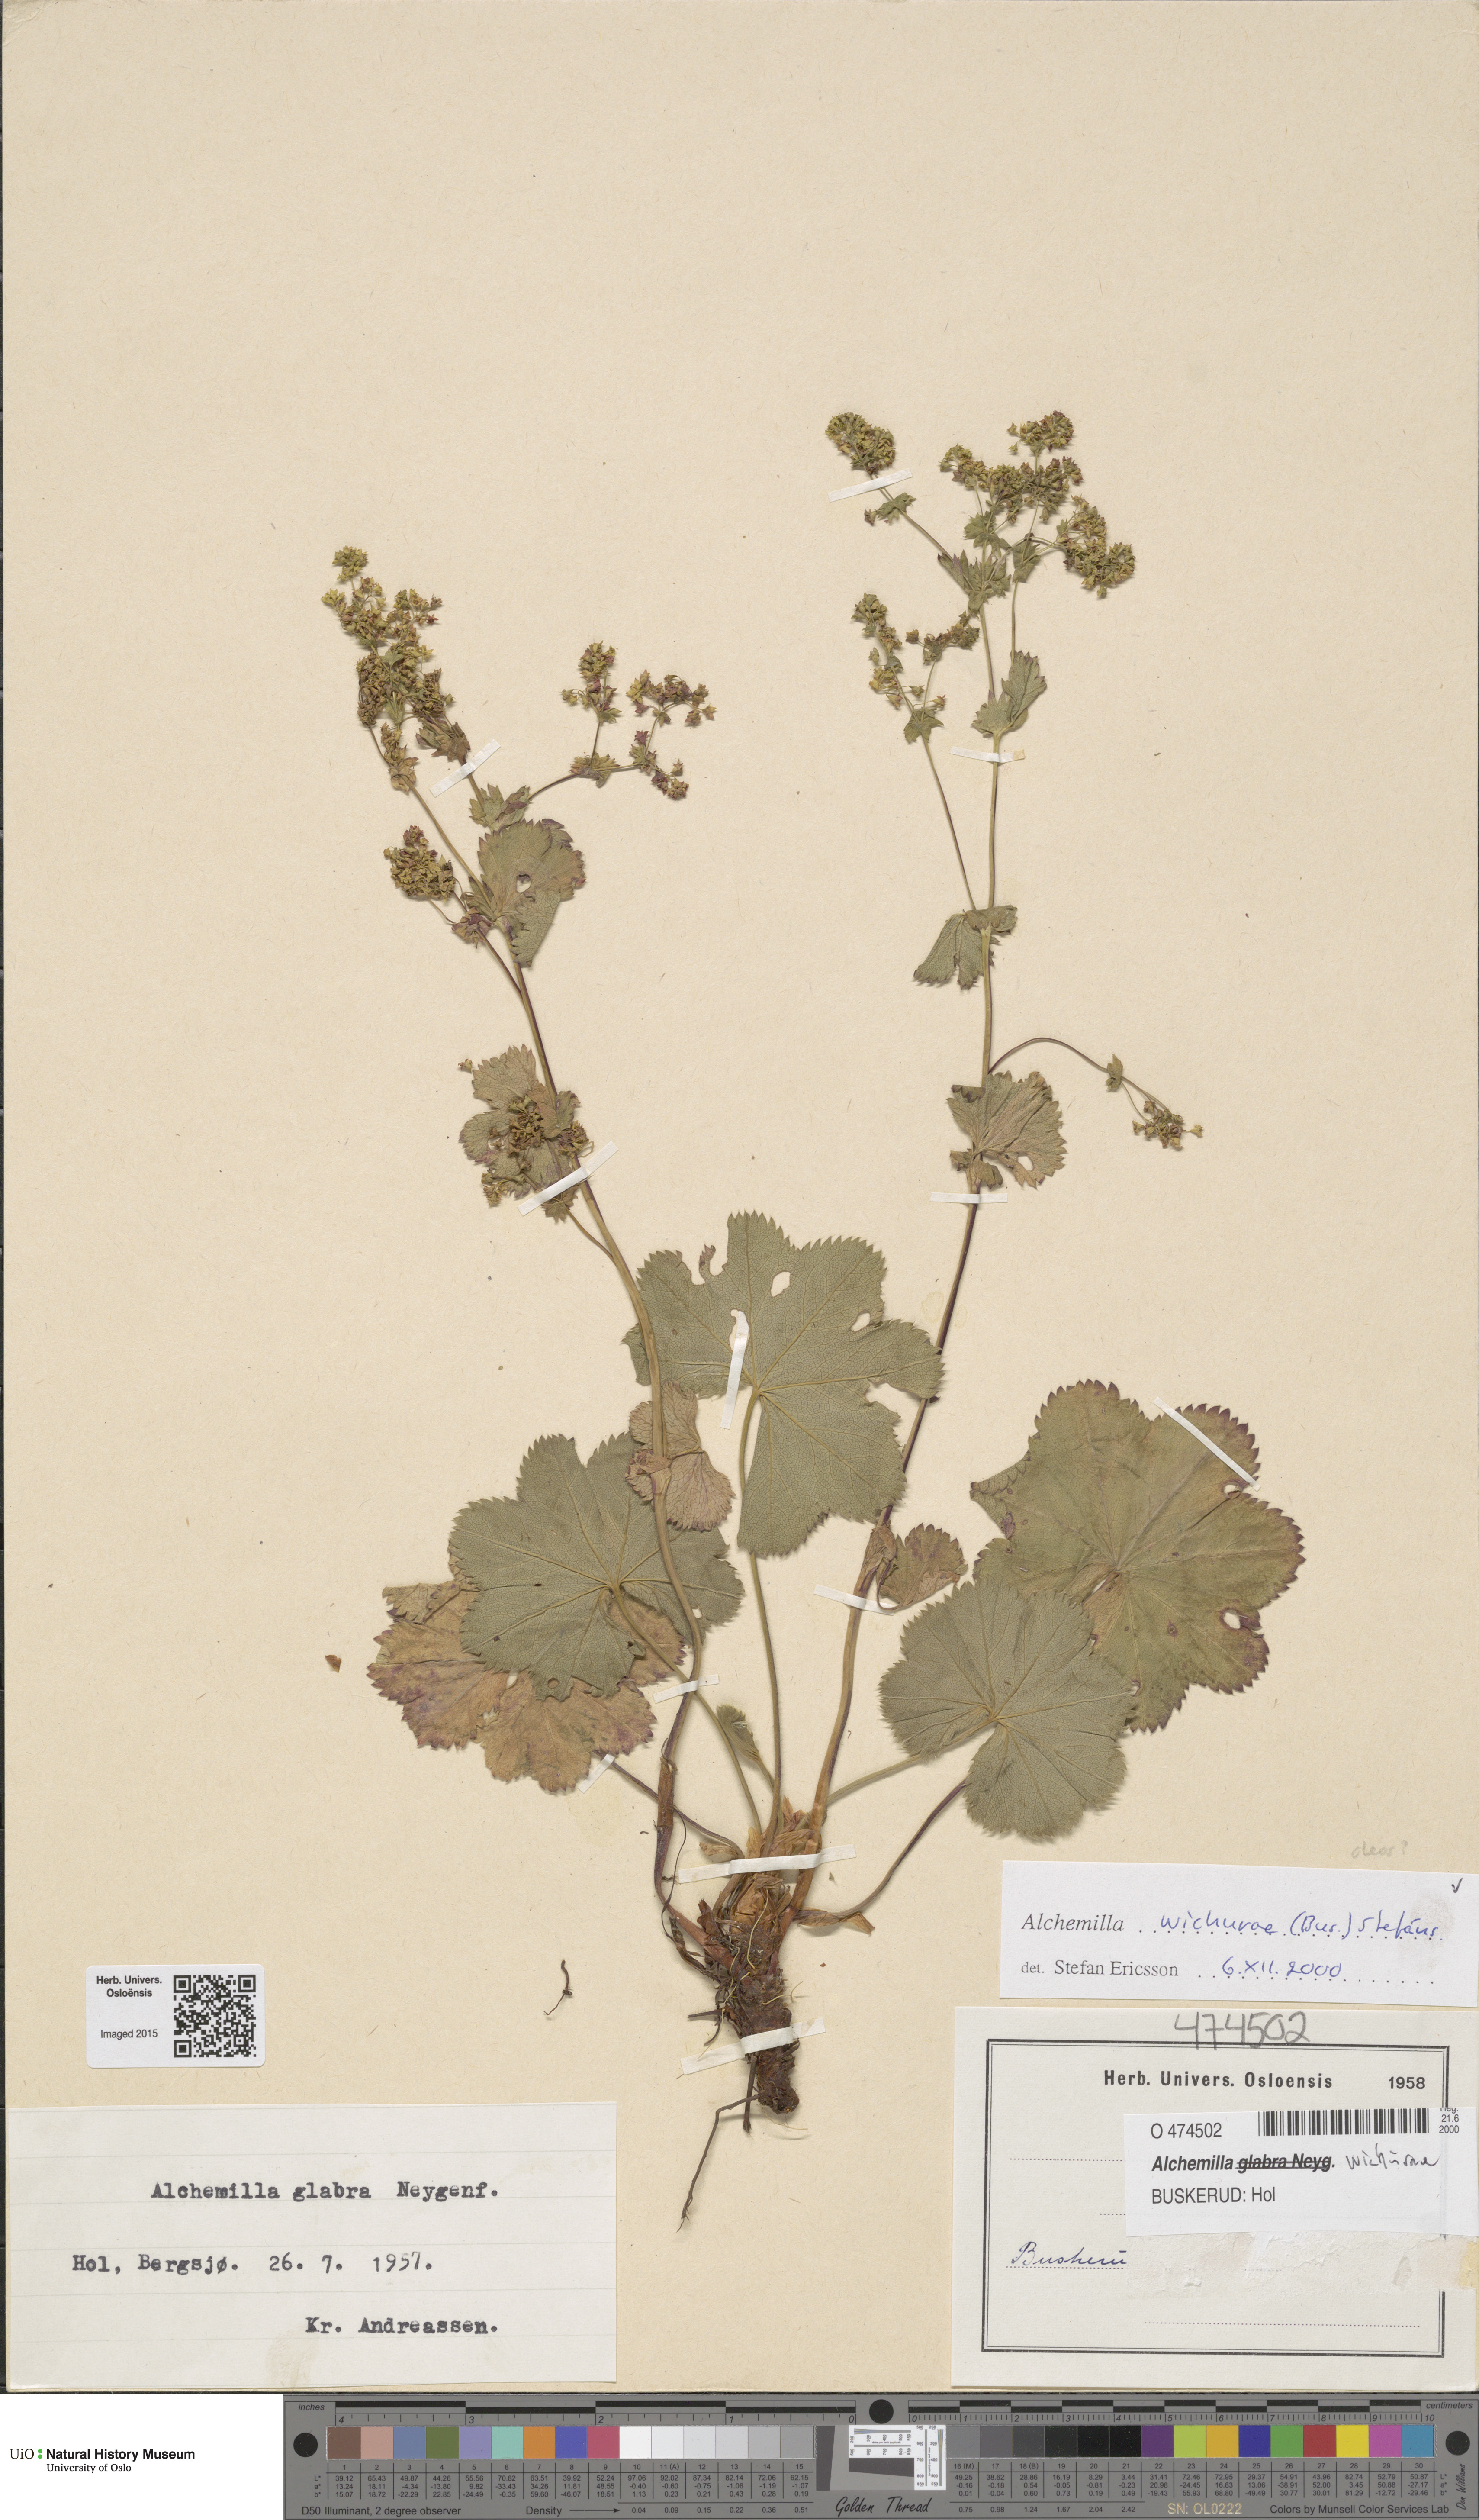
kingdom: Plantae
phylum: Tracheophyta
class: Magnoliopsida
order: Rosales
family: Rosaceae
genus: Alchemilla
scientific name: Alchemilla wichurae
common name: Rock lady's mantle
